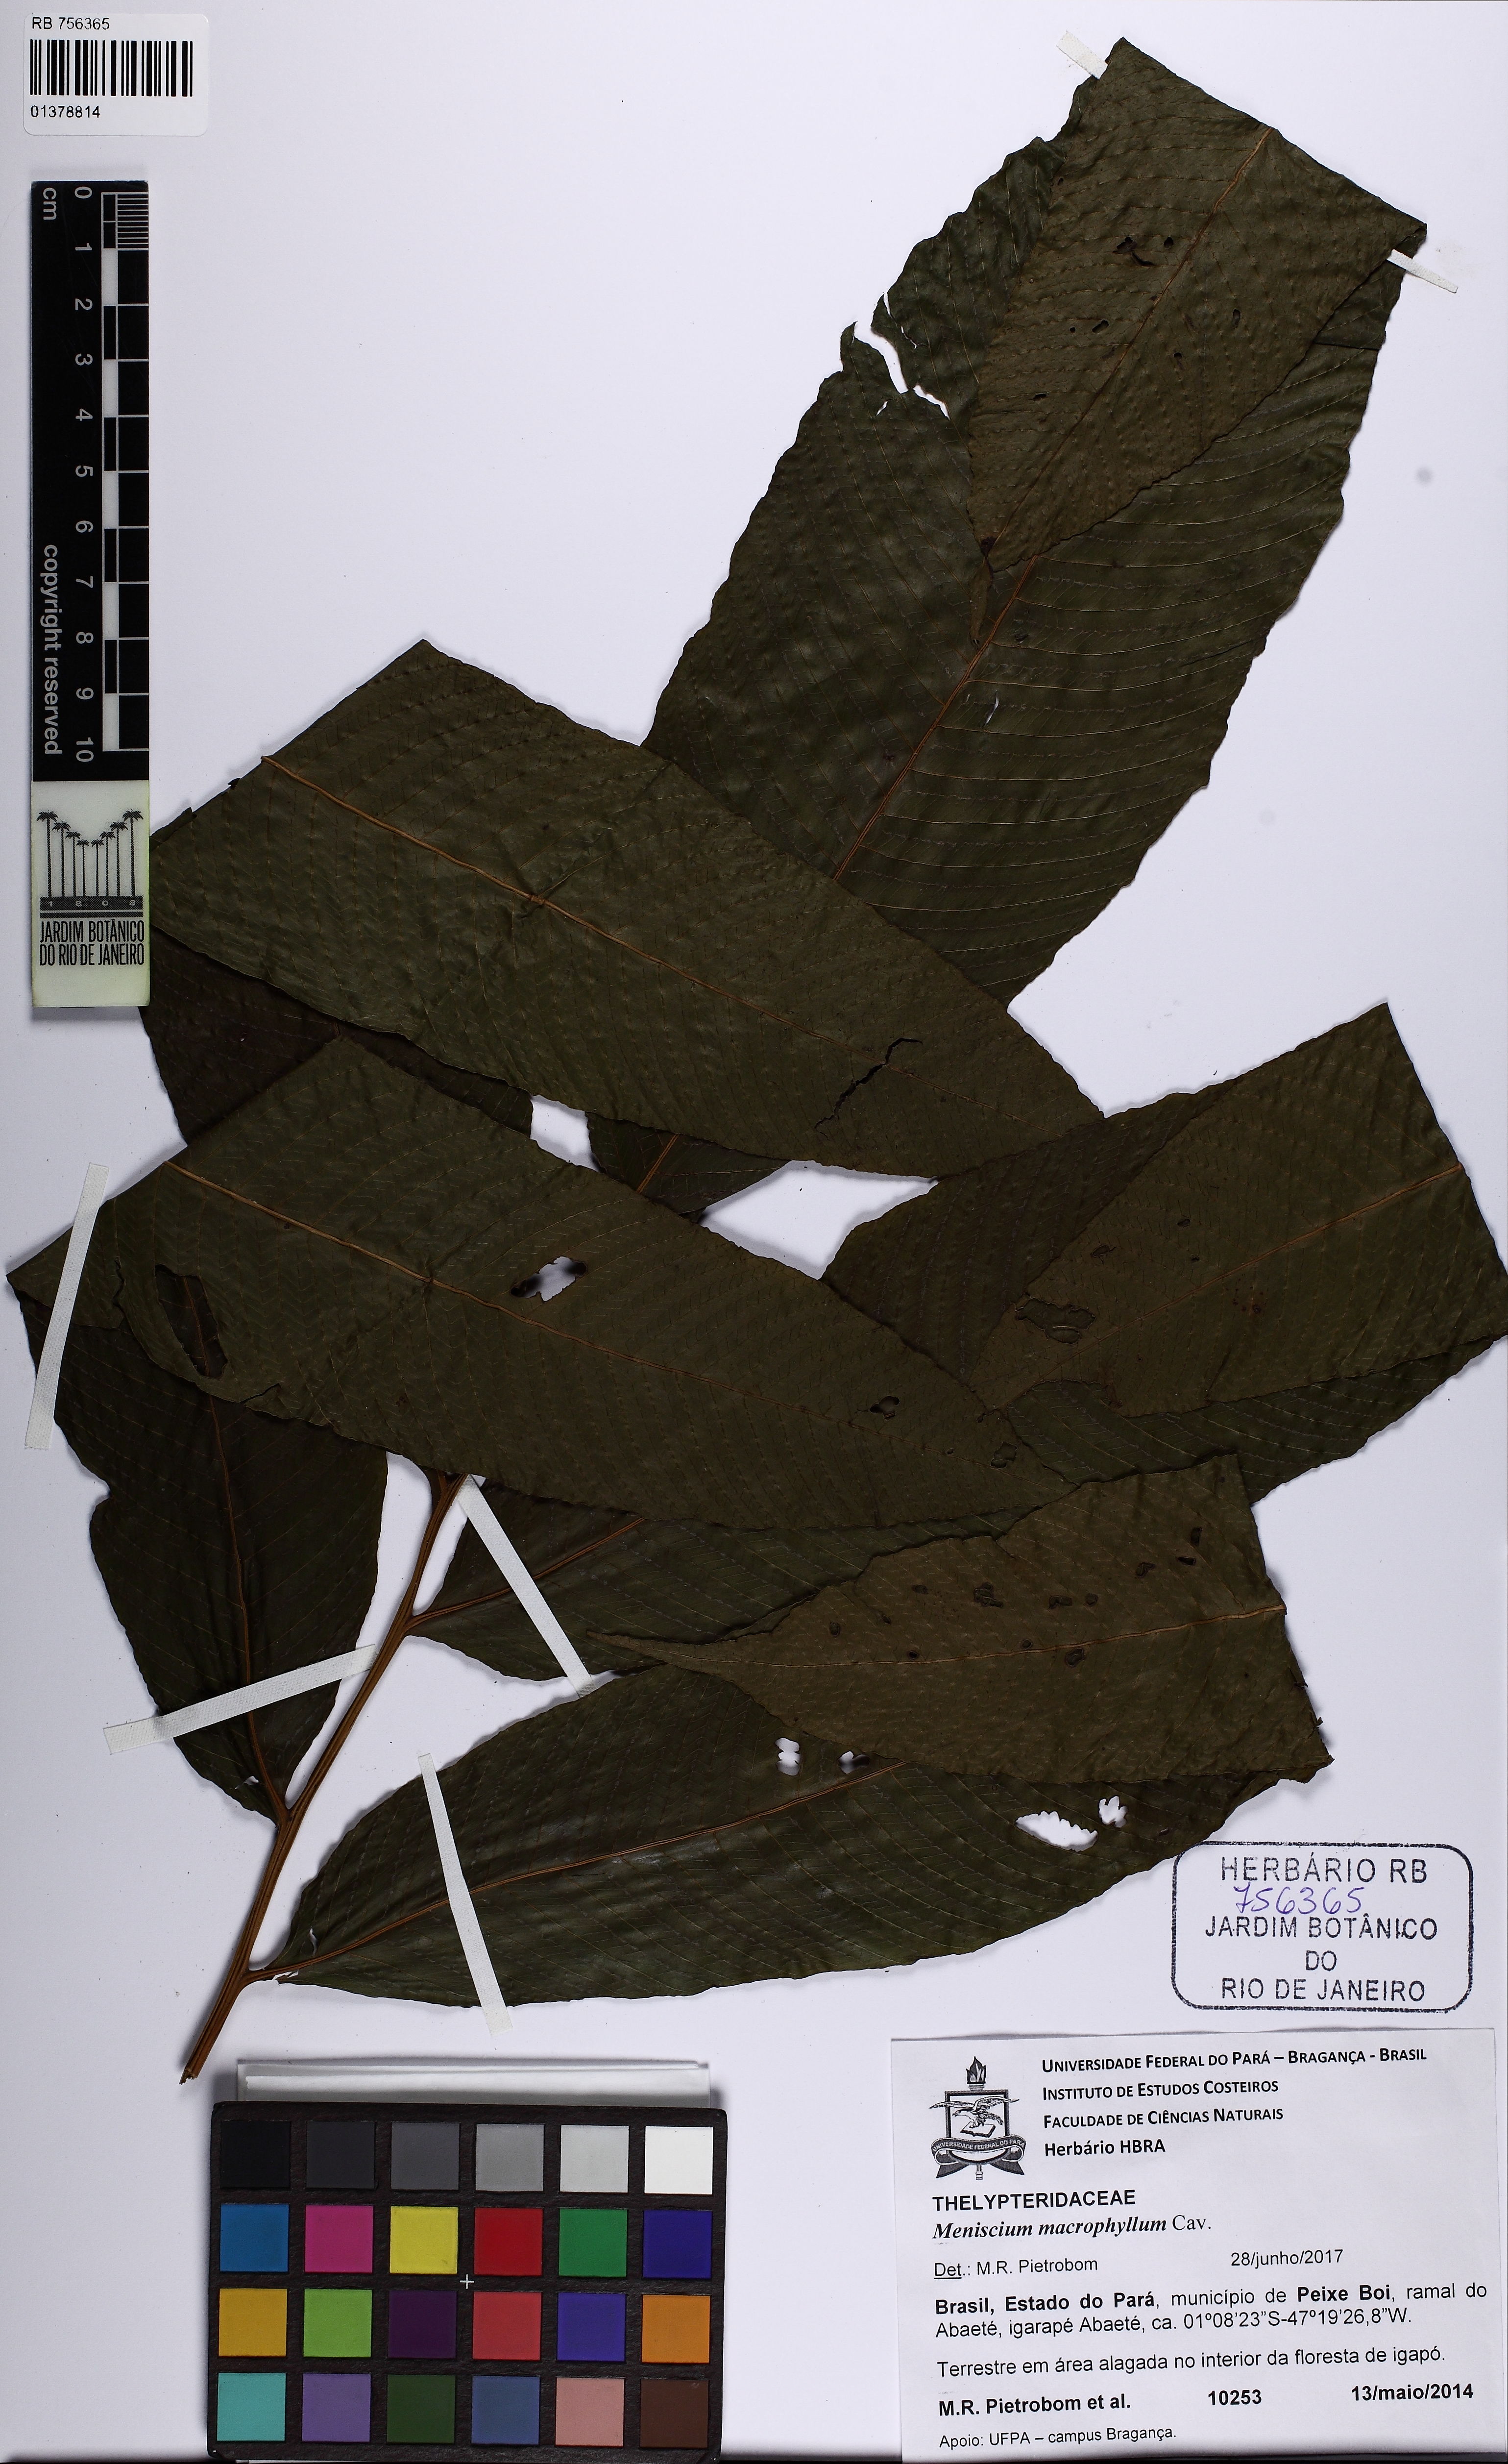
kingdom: Plantae
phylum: Tracheophyta
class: Polypodiopsida
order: Polypodiales
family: Thelypteridaceae
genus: Meniscium
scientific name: Meniscium macrophyllum
